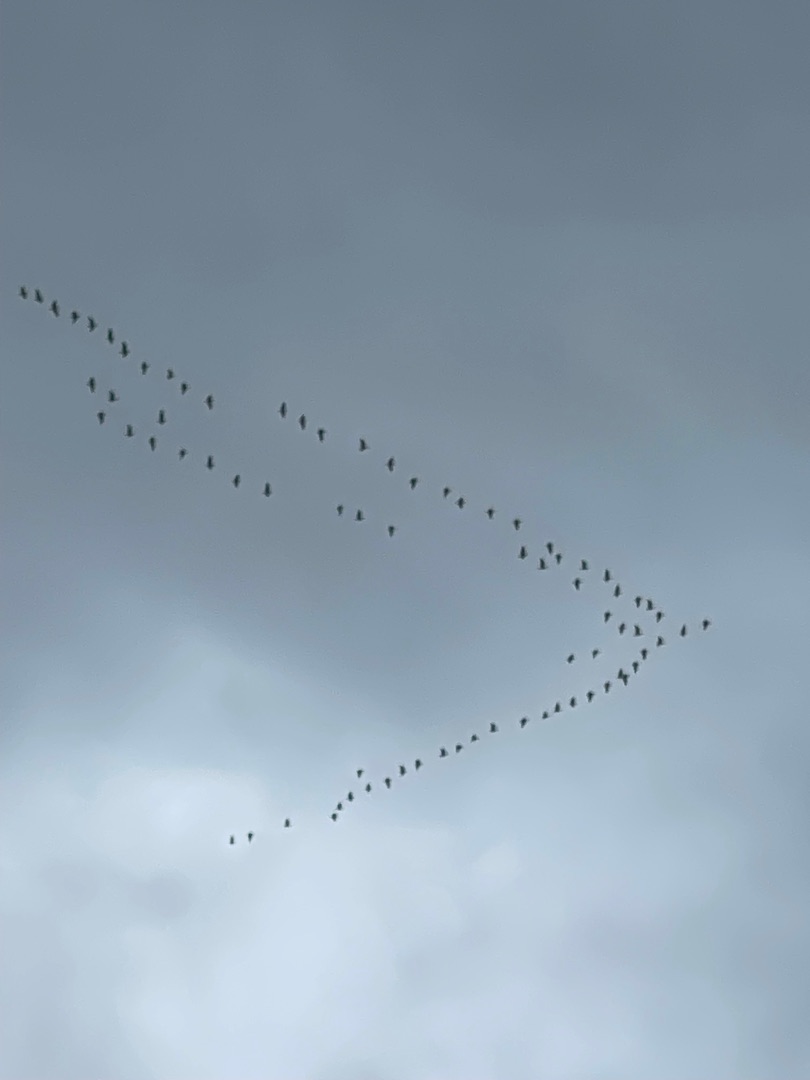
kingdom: Animalia
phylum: Chordata
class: Aves
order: Anseriformes
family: Anatidae
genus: Branta
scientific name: Branta leucopsis
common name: Bramgås
